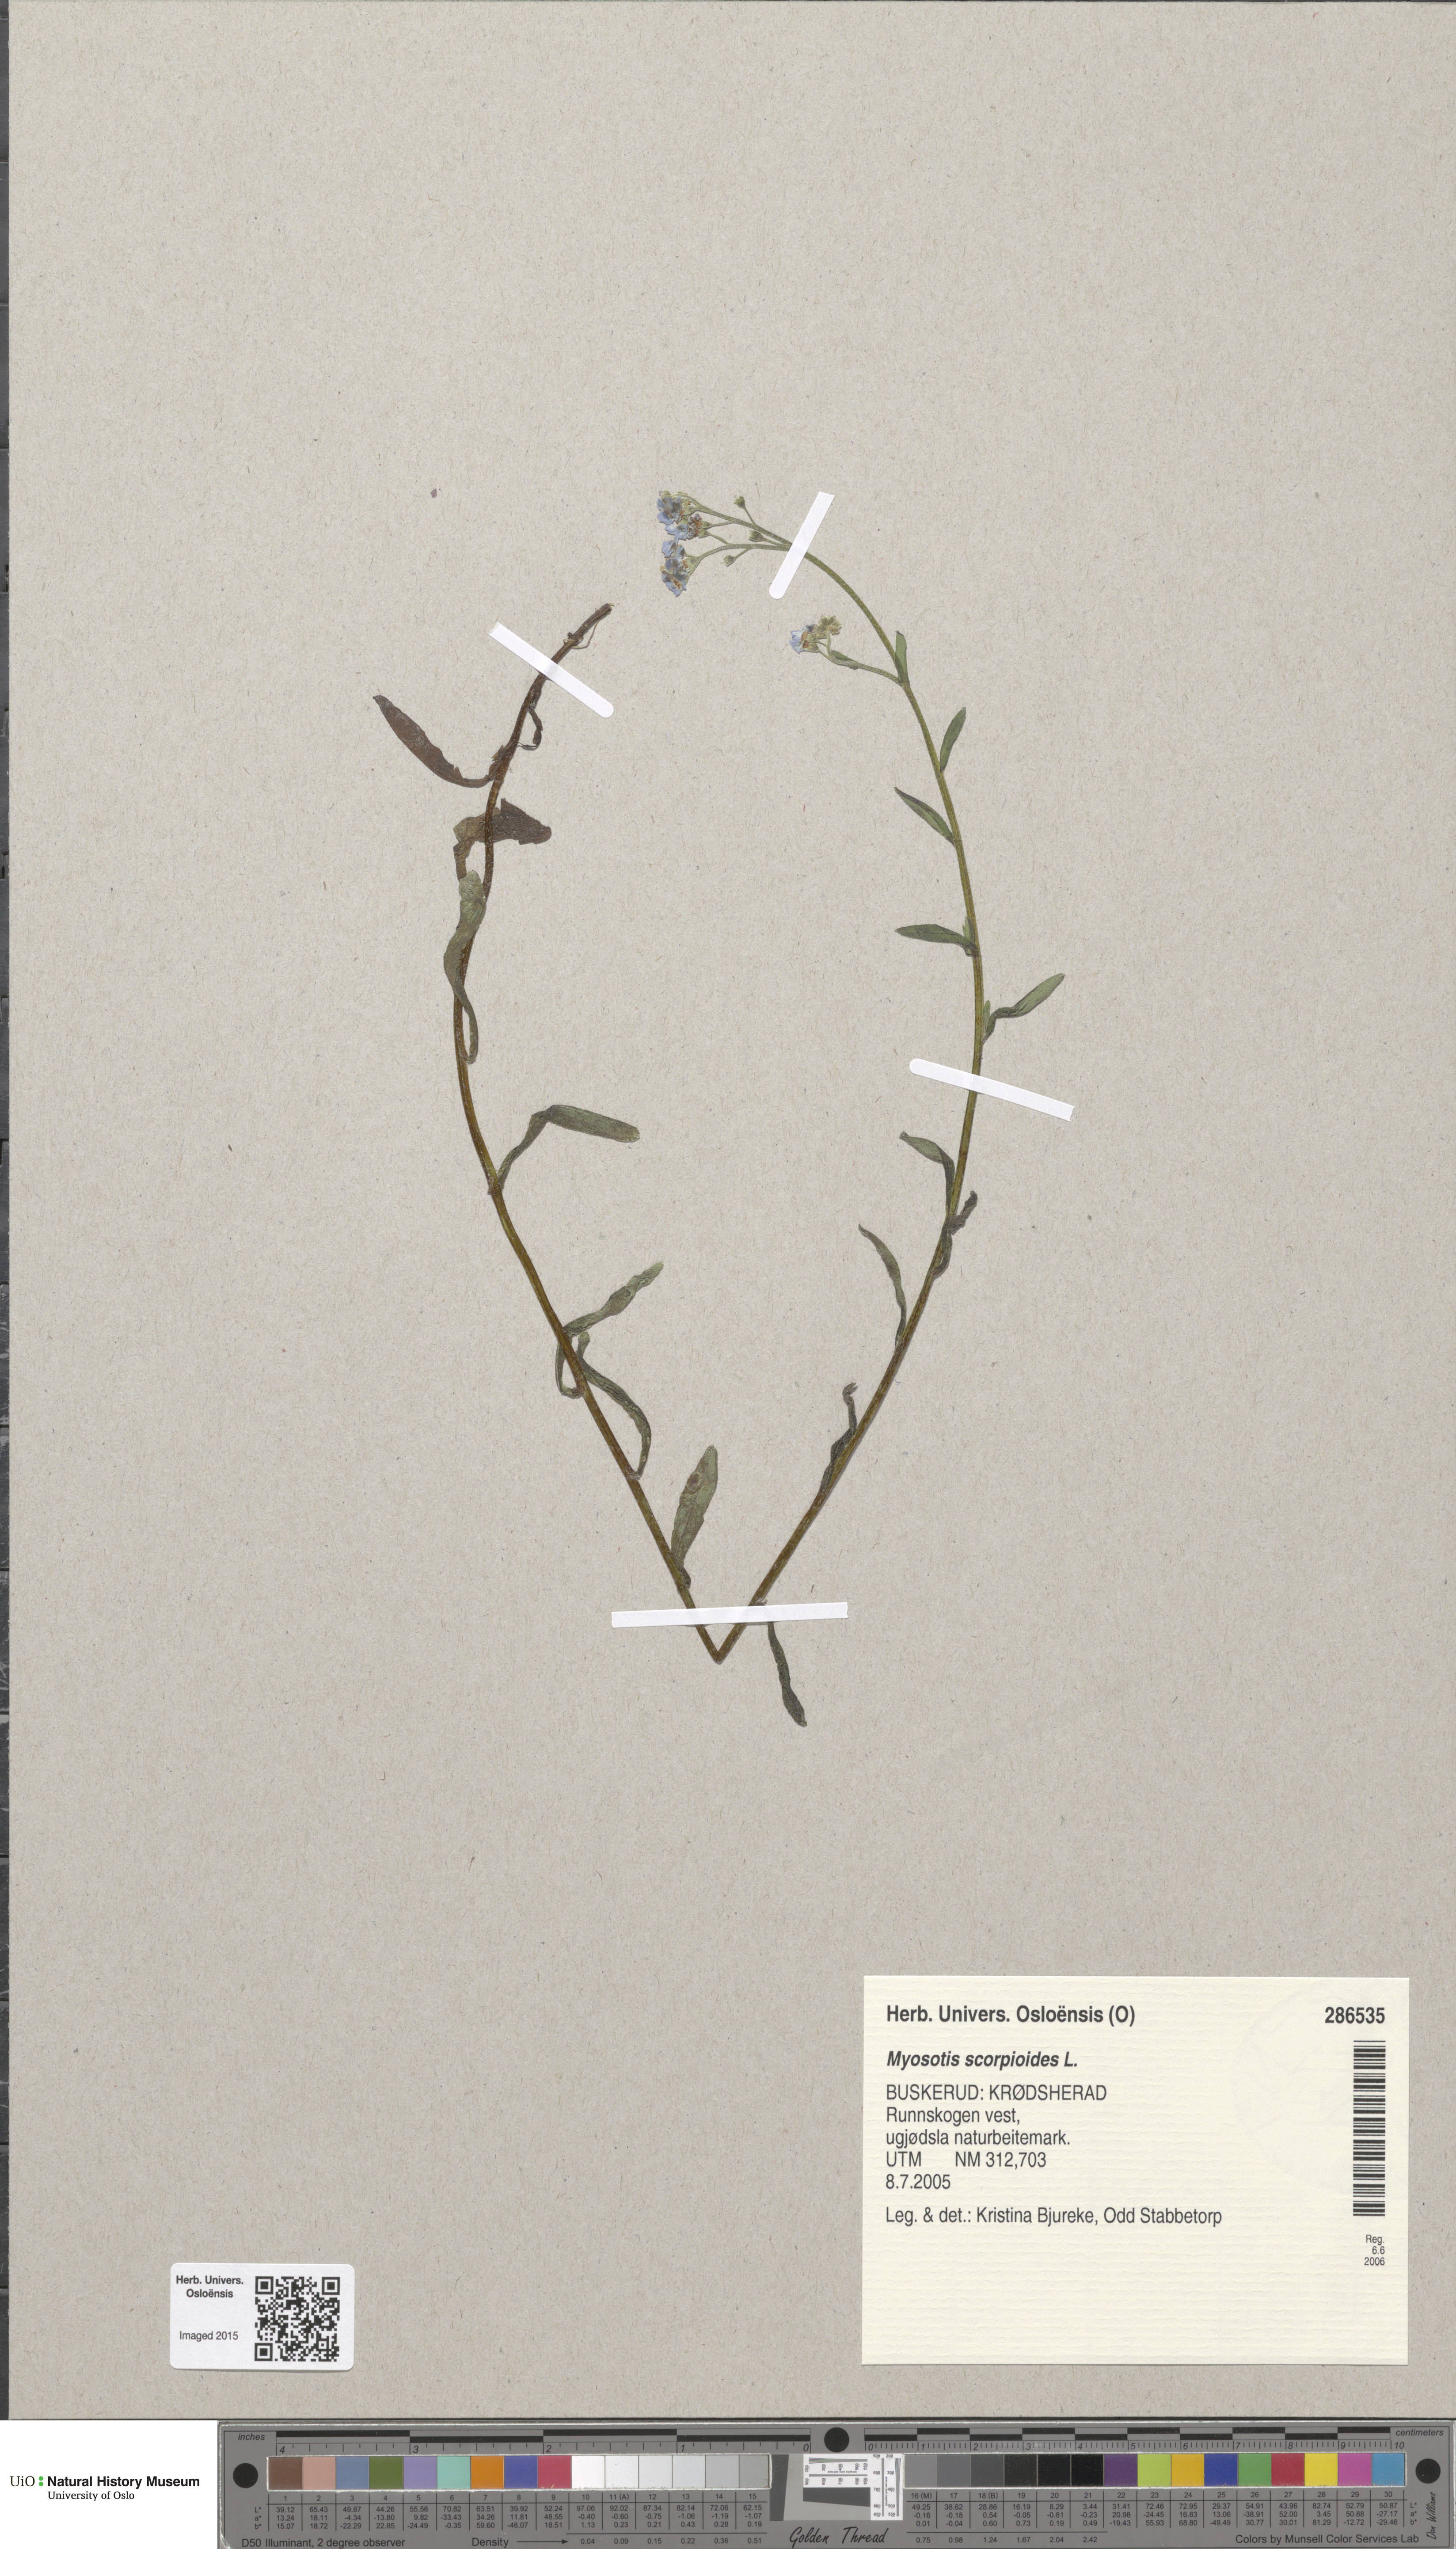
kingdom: Plantae
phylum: Tracheophyta
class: Magnoliopsida
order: Boraginales
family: Boraginaceae
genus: Myosotis
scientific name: Myosotis scorpioides
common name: Water forget-me-not
